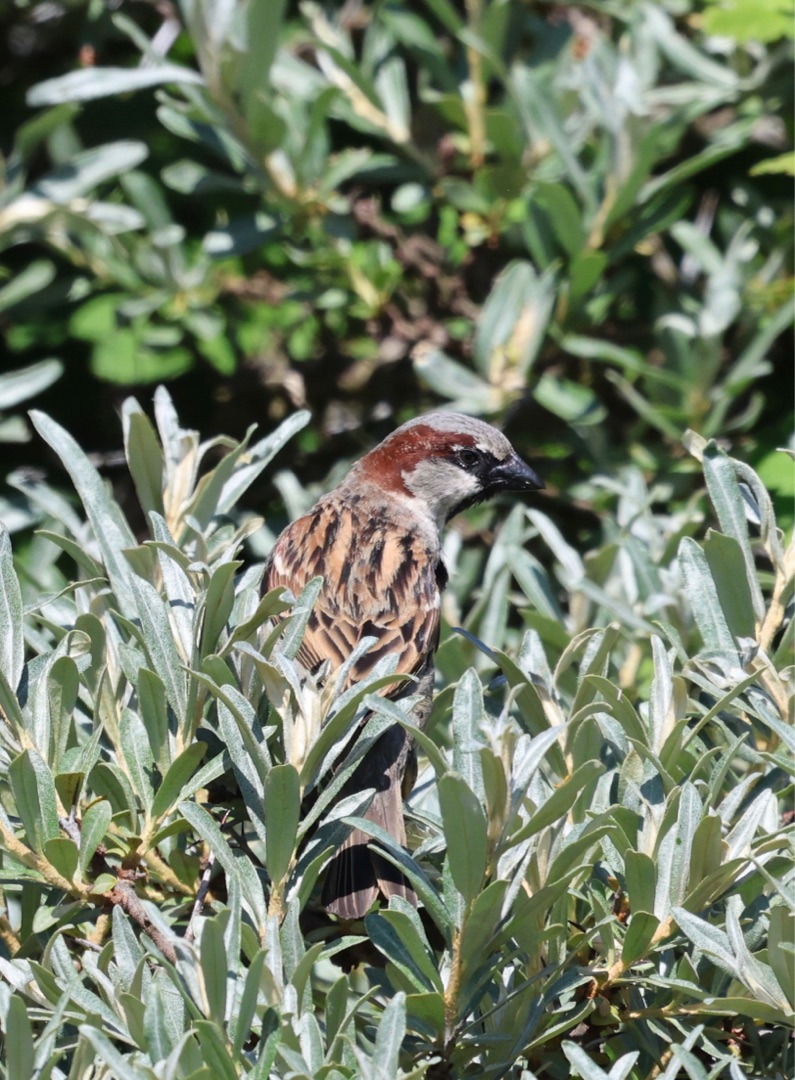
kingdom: Animalia
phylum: Chordata
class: Aves
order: Passeriformes
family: Passeridae
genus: Passer
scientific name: Passer domesticus
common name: Gråspurv
